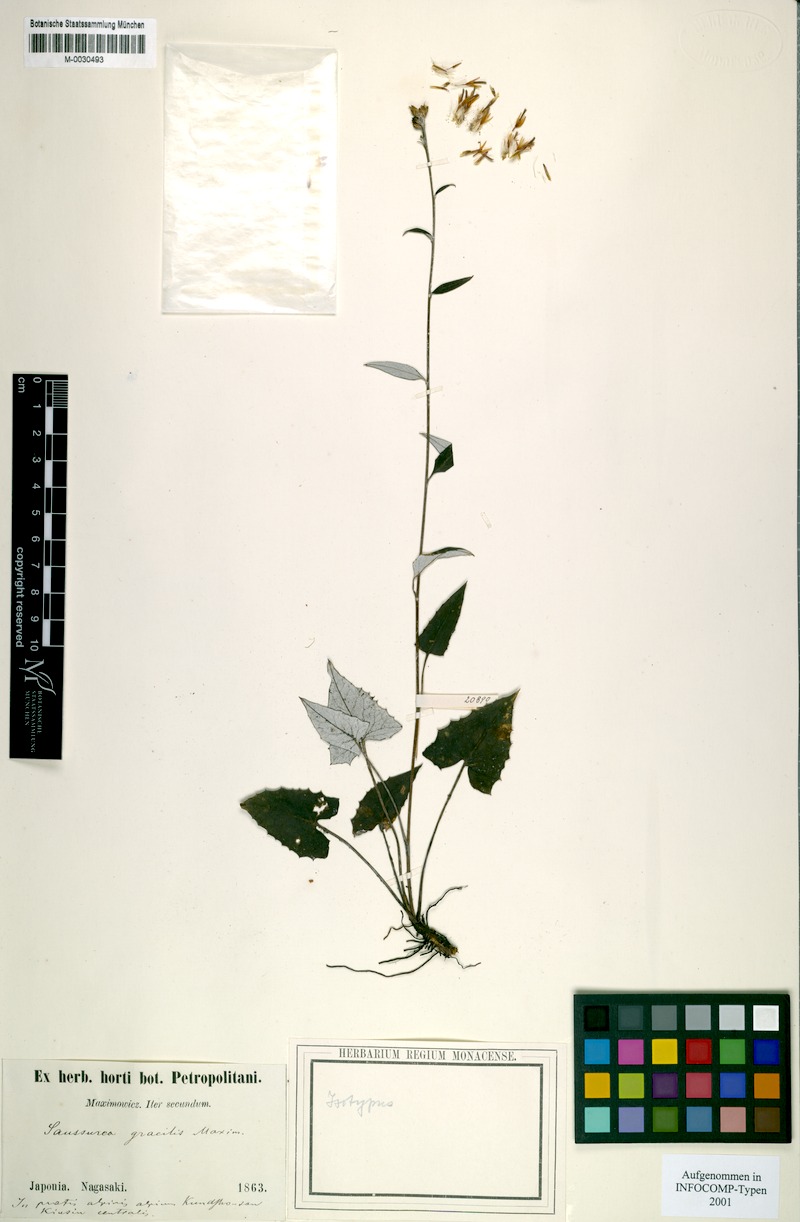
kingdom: Plantae
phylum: Tracheophyta
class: Magnoliopsida
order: Asterales
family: Asteraceae
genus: Saussurea
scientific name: Saussurea gracilis
